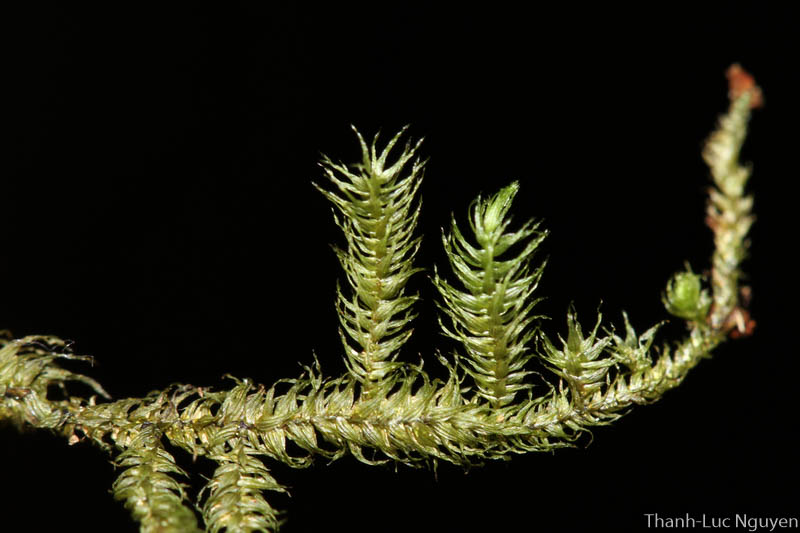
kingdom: Plantae
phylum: Bryophyta
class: Bryopsida
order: Hypnales
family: Meteoriaceae
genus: Trachypodopsis
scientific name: Trachypodopsis serrulata
